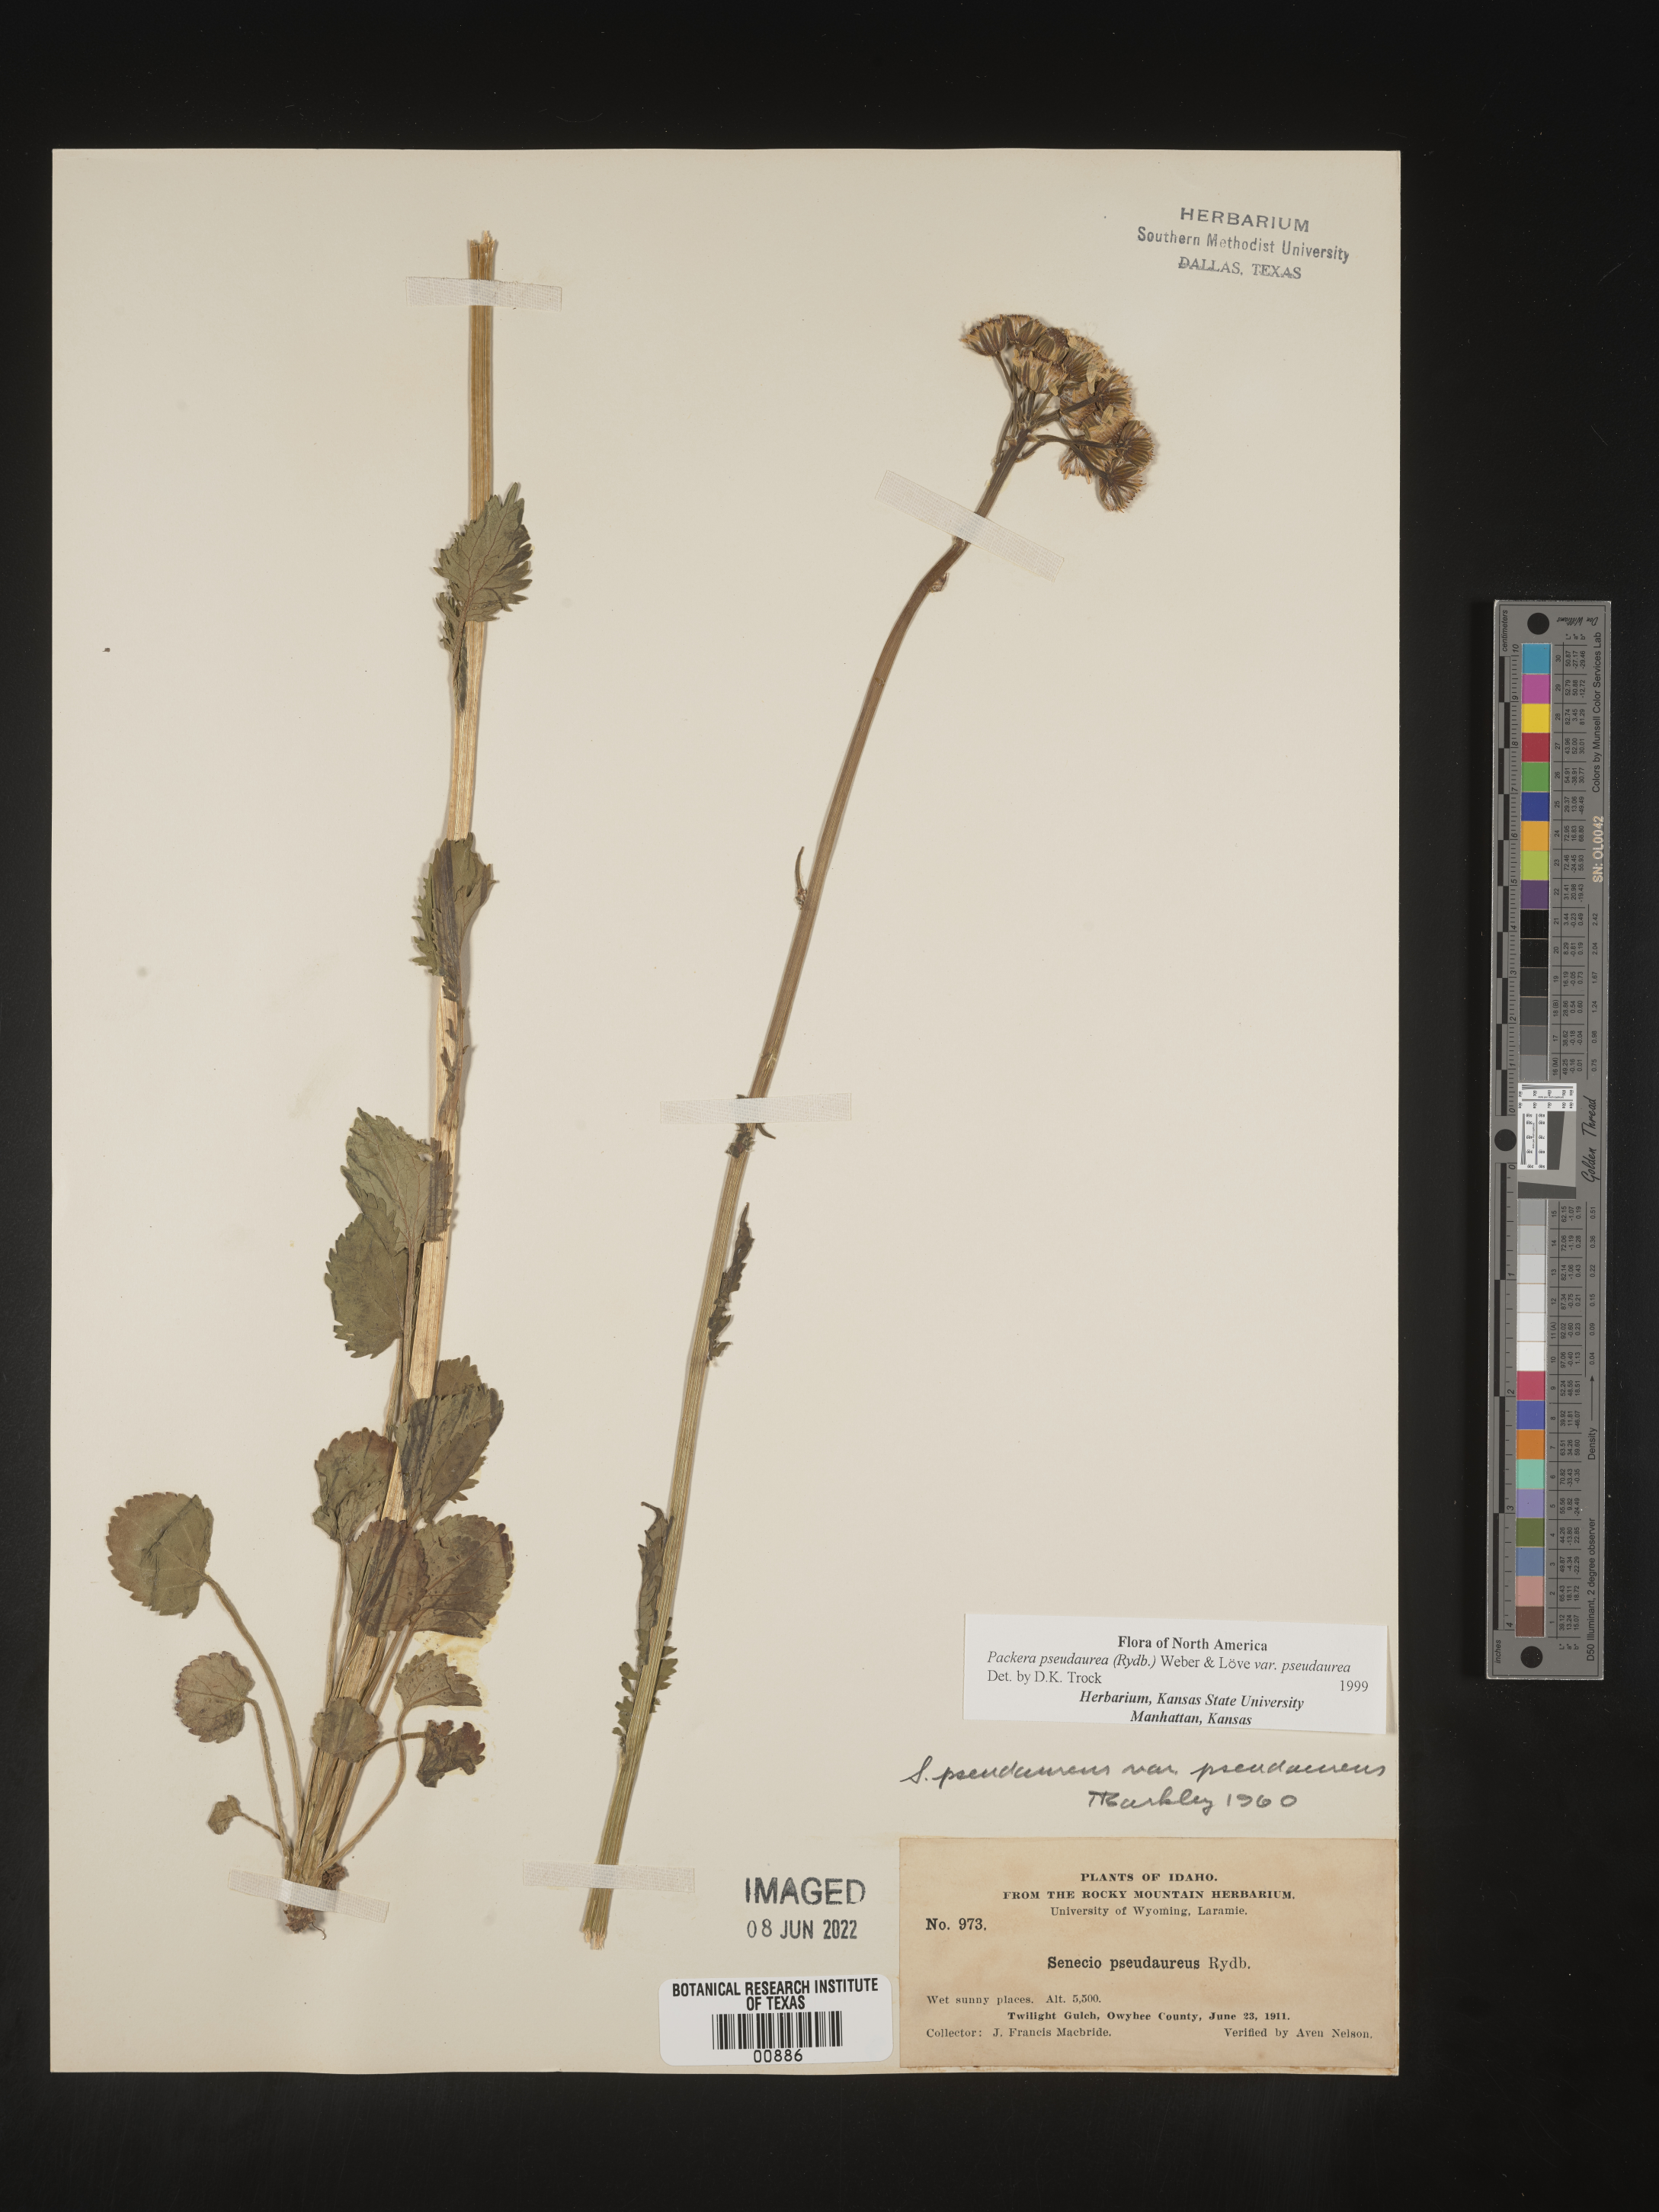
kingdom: Plantae
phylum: Tracheophyta
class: Magnoliopsida
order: Asterales
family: Asteraceae
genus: Packera
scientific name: Packera pseudaurea
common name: False-gold groundsel
